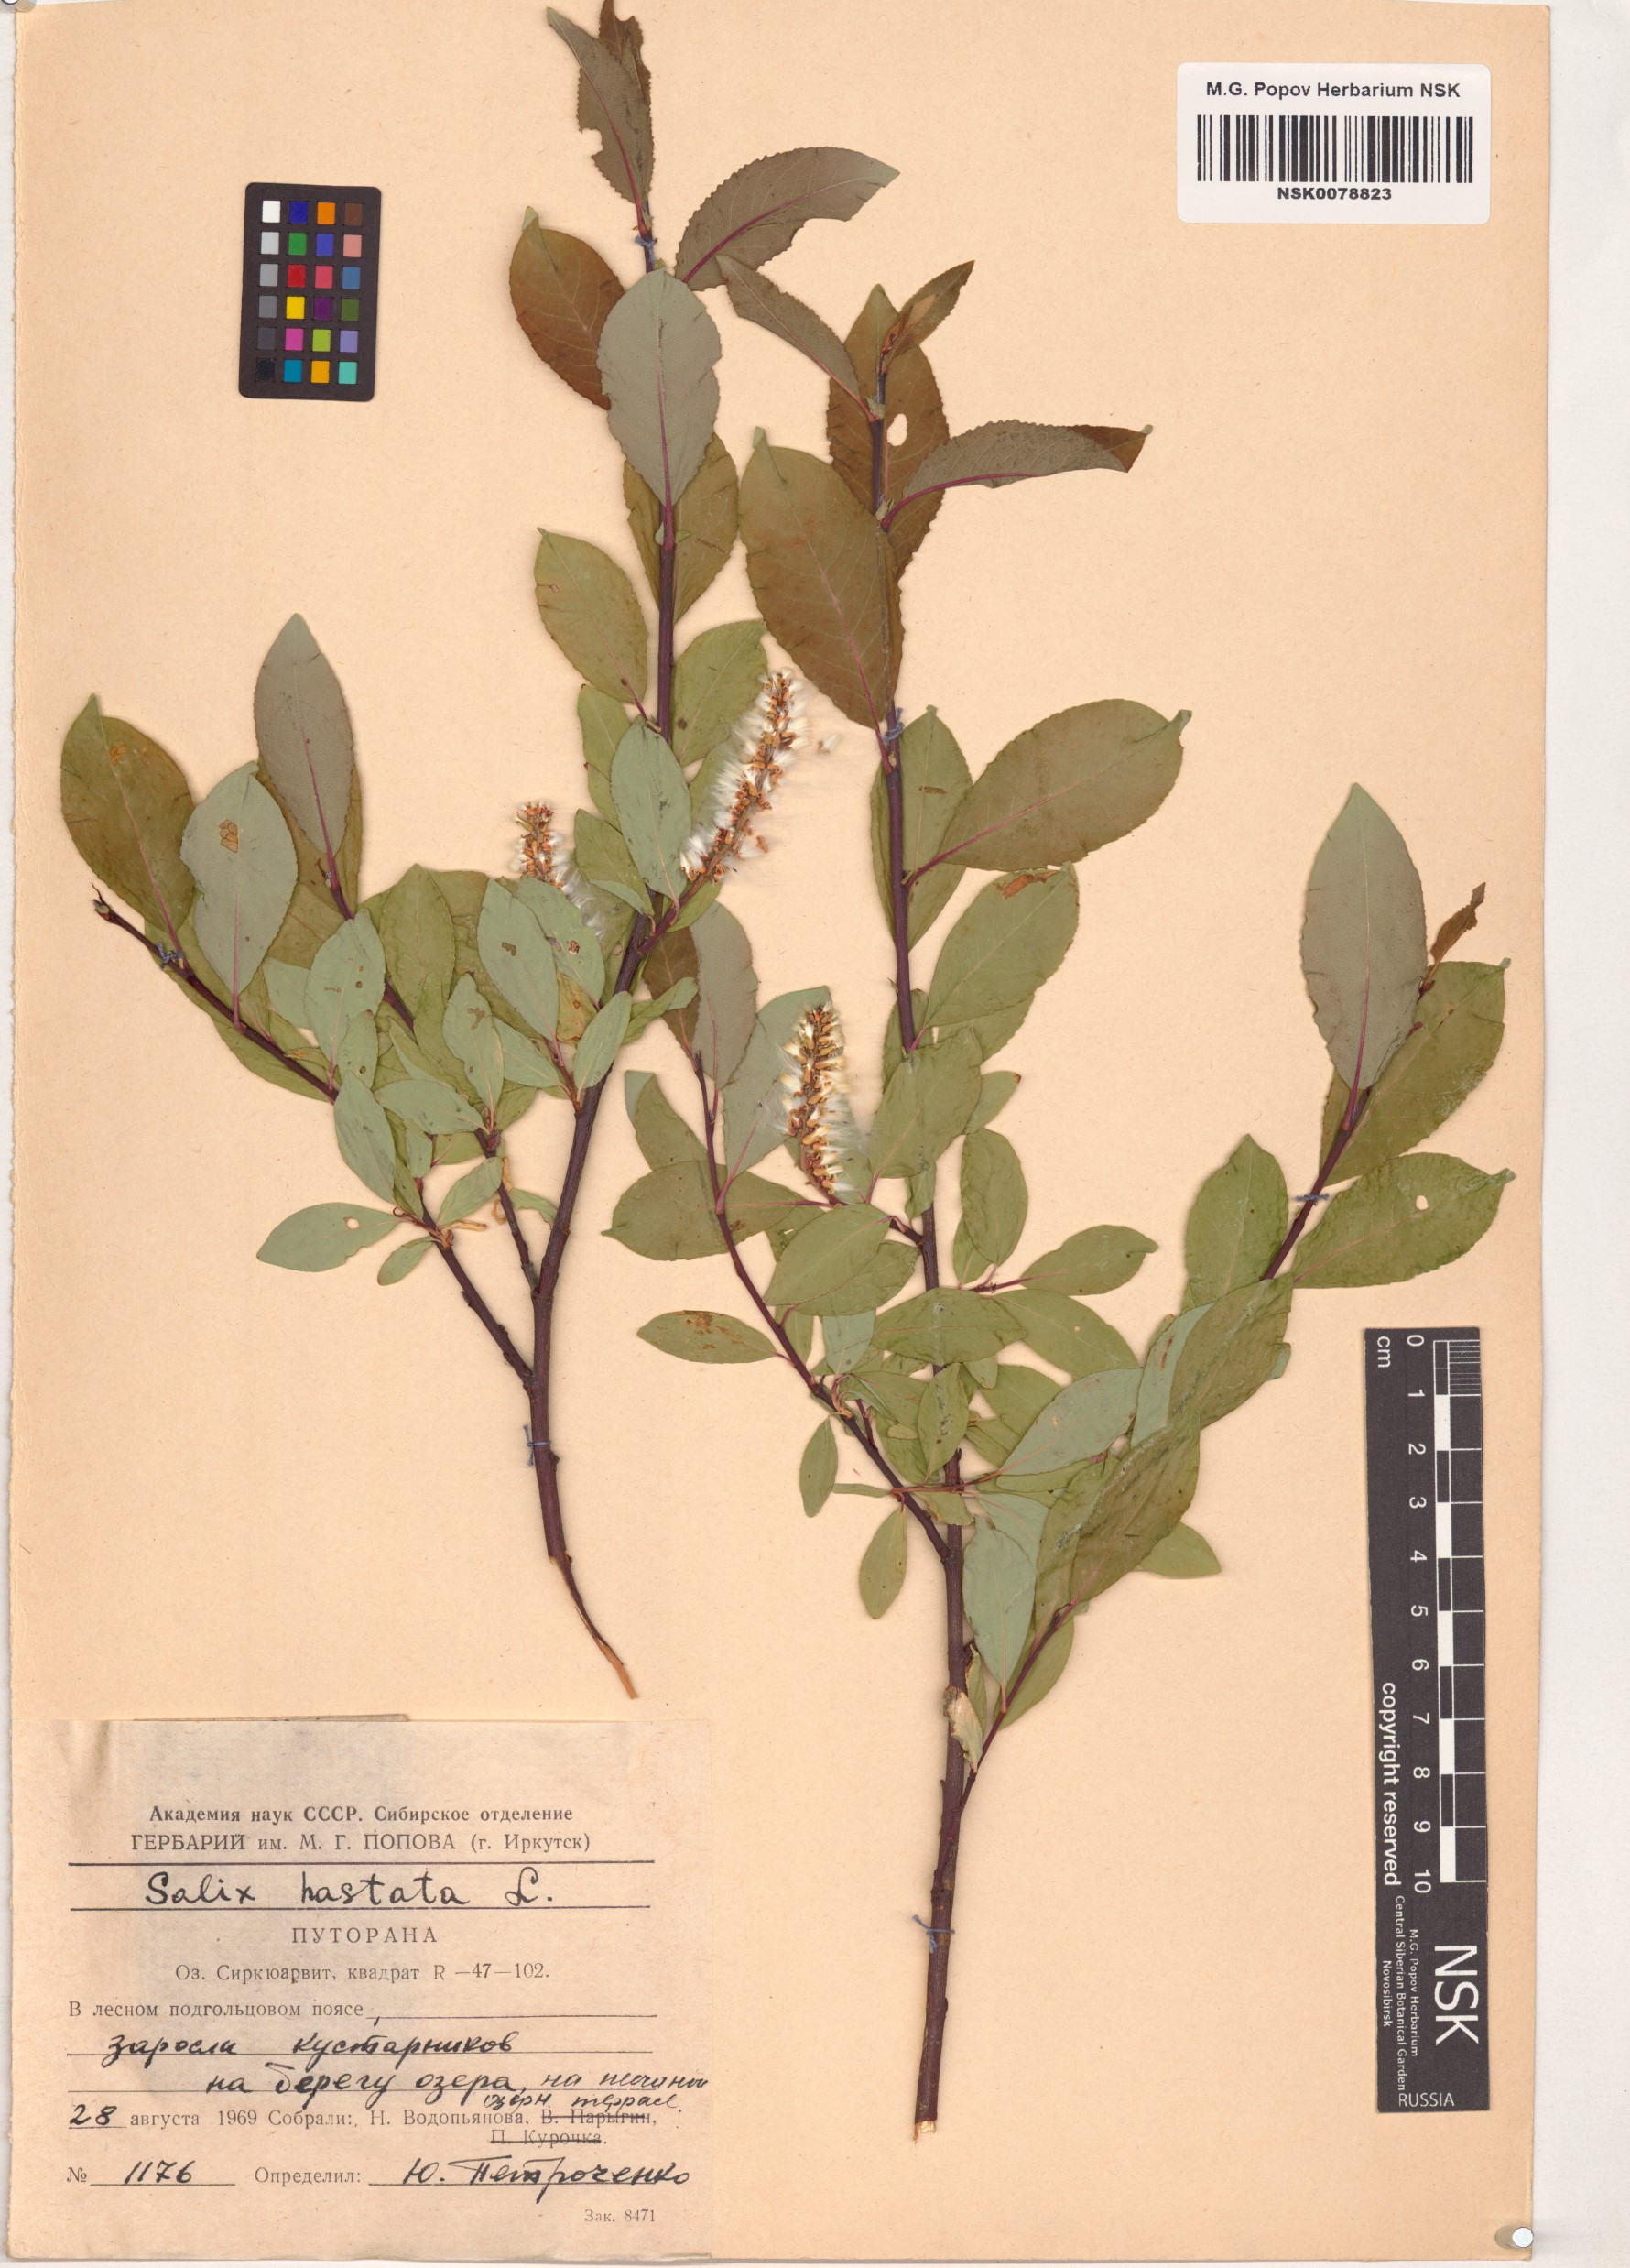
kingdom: Plantae
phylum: Tracheophyta
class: Magnoliopsida
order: Malpighiales
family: Salicaceae
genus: Salix
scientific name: Salix hastata
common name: Halberd willow
